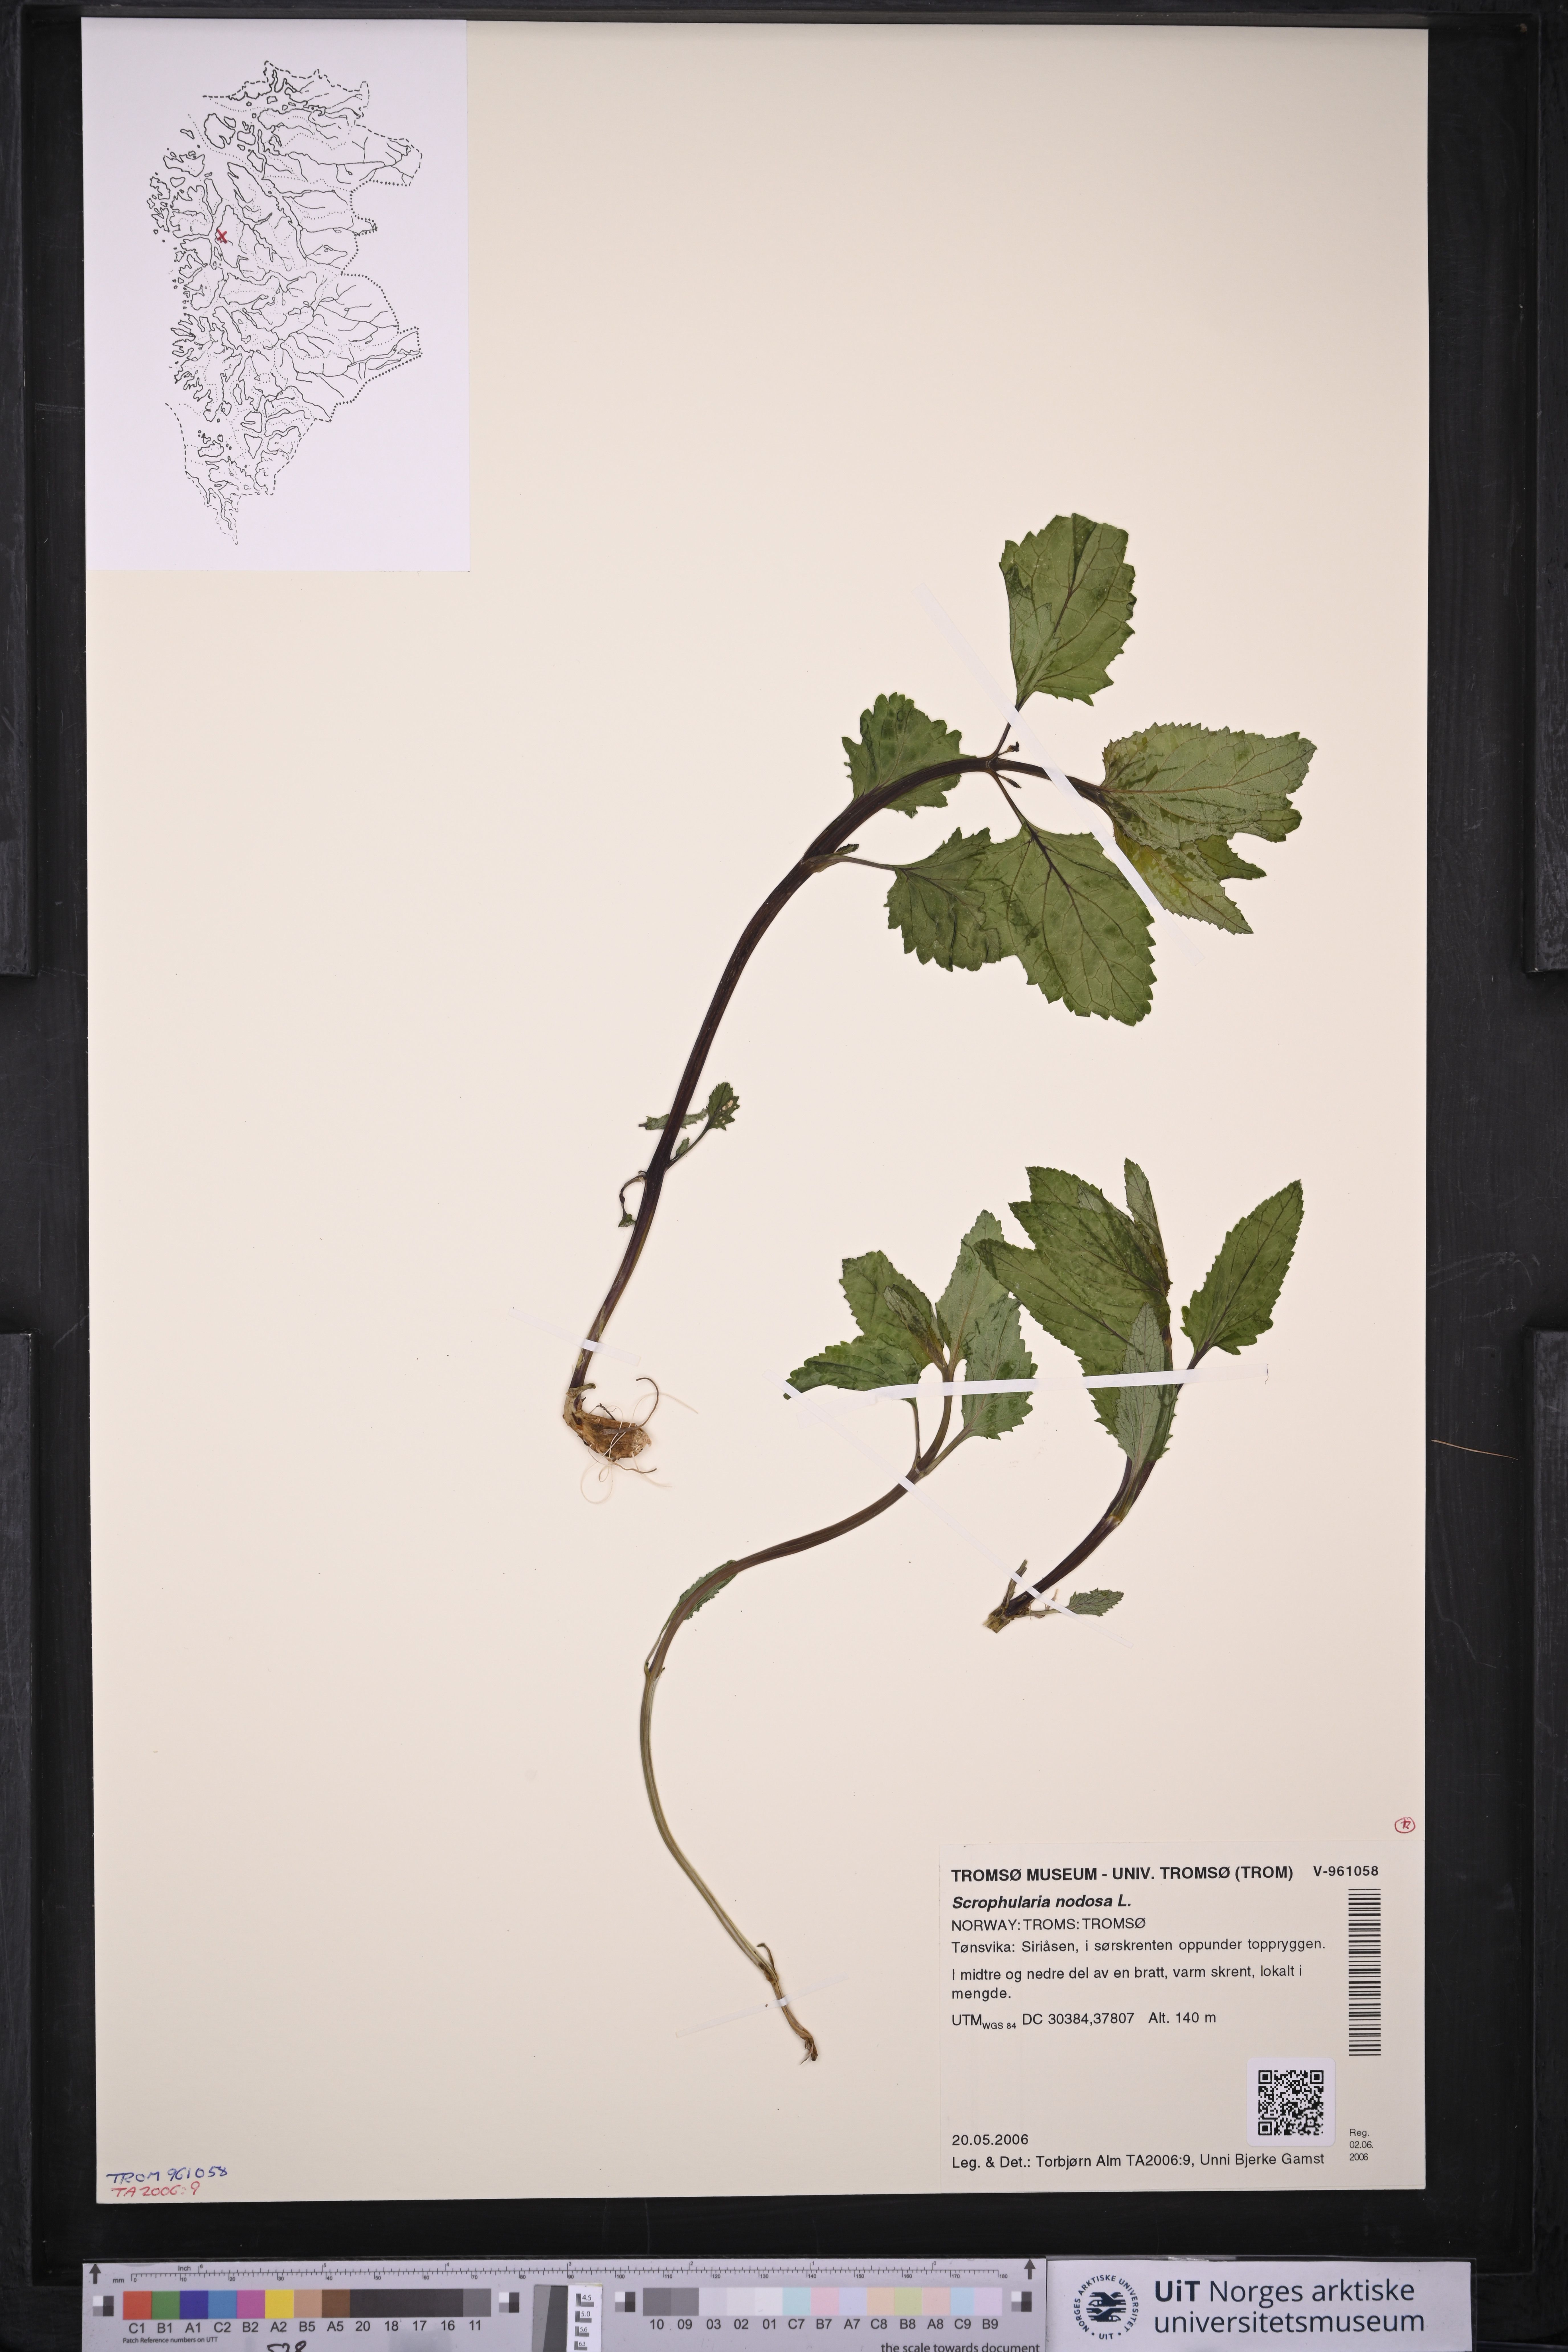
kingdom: Plantae
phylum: Tracheophyta
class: Magnoliopsida
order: Lamiales
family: Scrophulariaceae
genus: Scrophularia
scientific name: Scrophularia nodosa
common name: Common figwort
